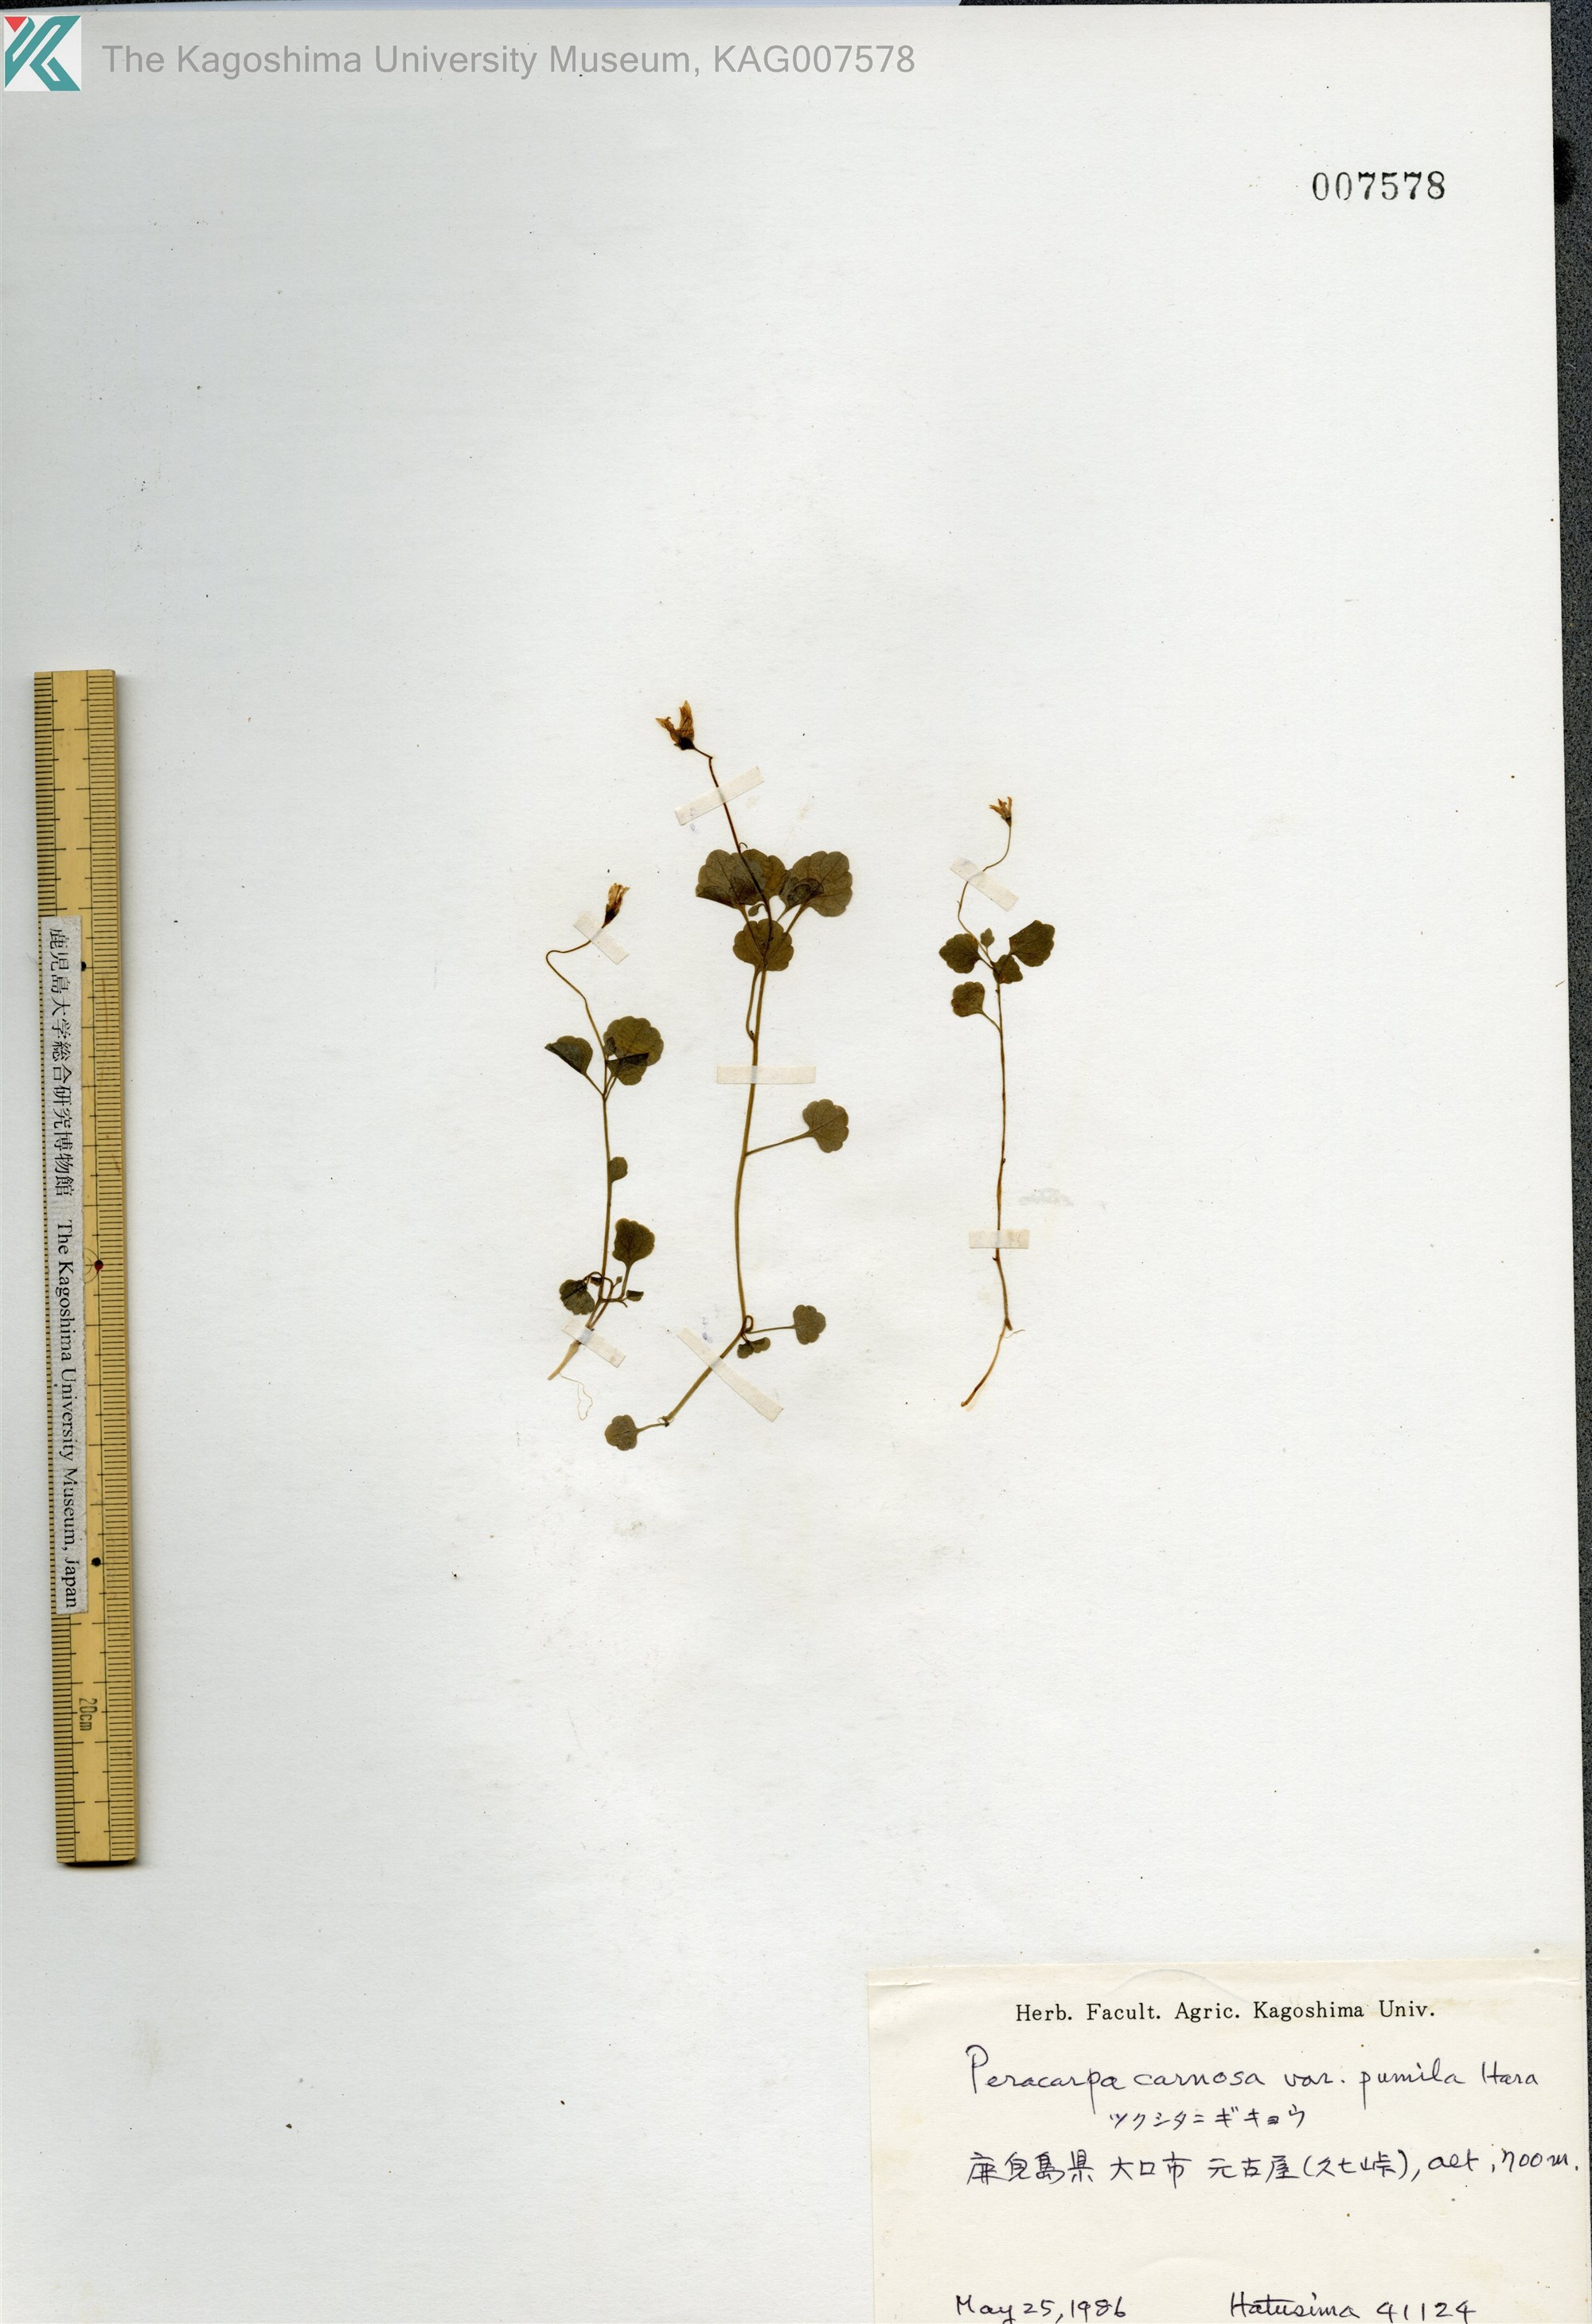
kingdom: Plantae
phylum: Tracheophyta
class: Magnoliopsida
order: Asterales
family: Campanulaceae
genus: Peracarpa
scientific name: Peracarpa carnosa
